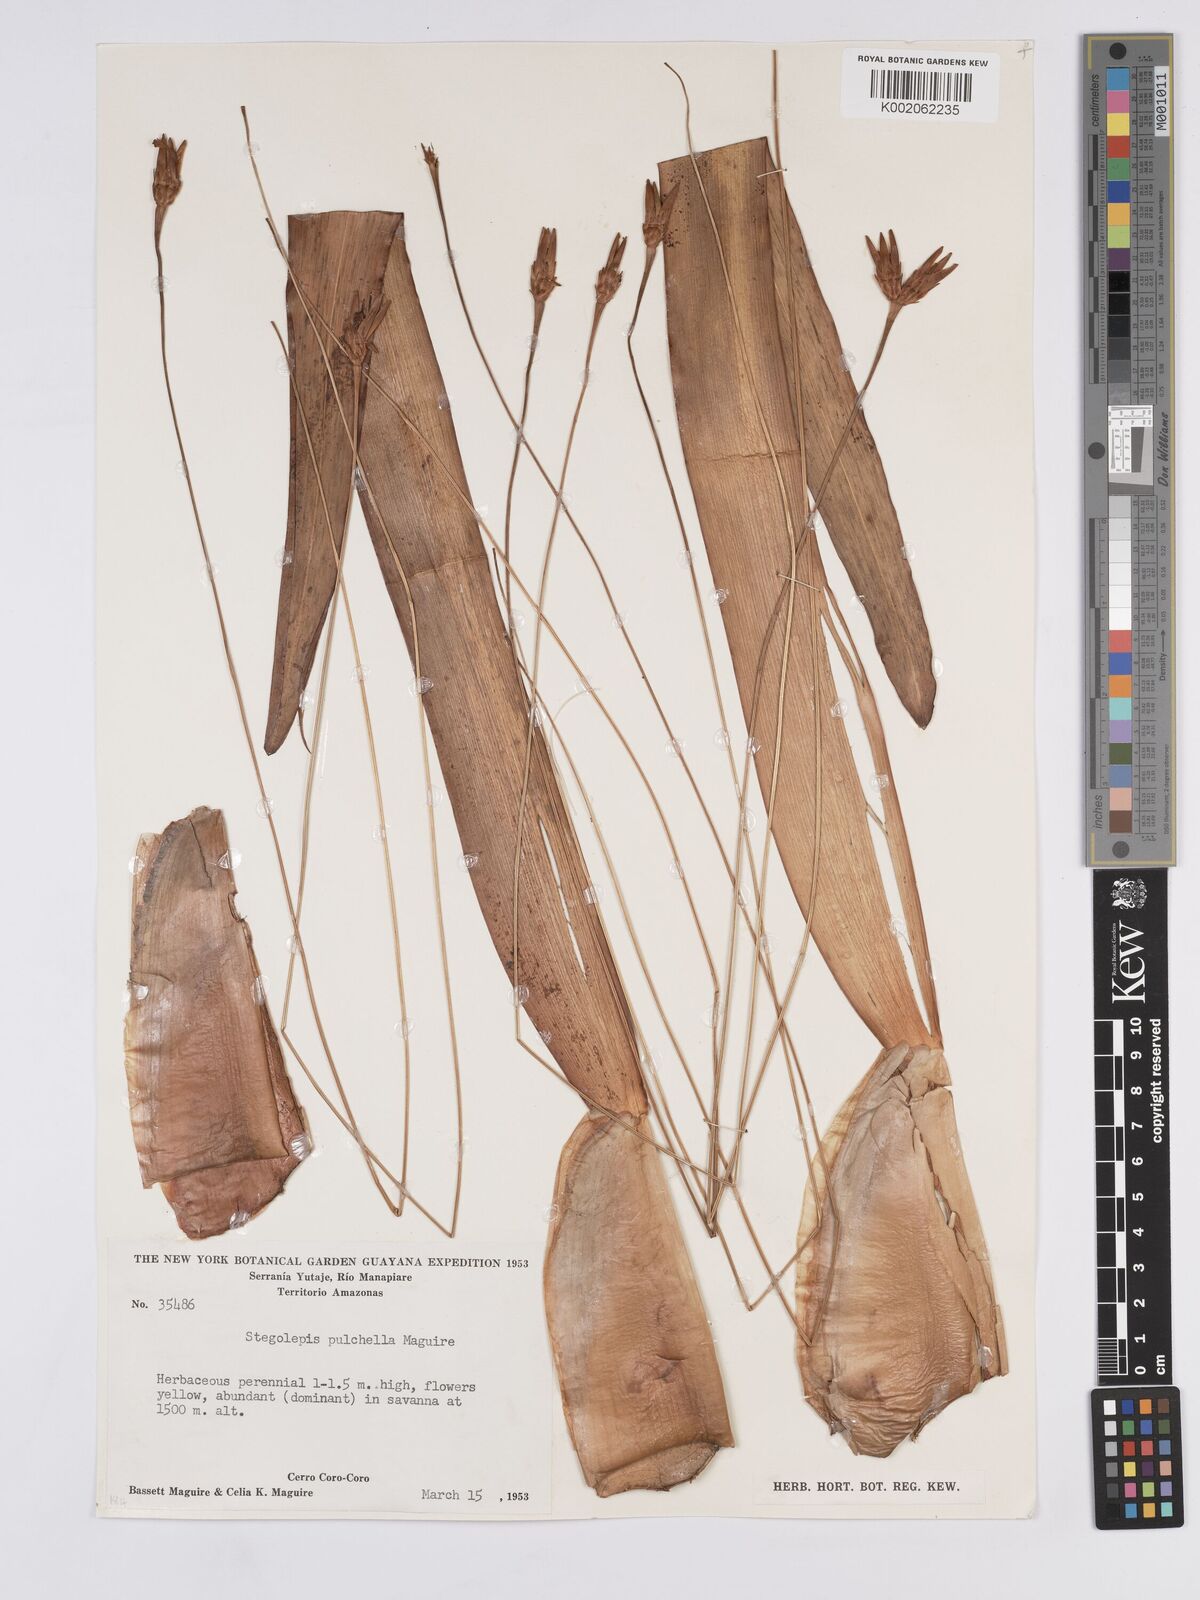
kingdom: Plantae
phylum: Tracheophyta
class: Liliopsida
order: Poales
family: Rapateaceae
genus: Stegolepis
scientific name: Stegolepis pulchella
